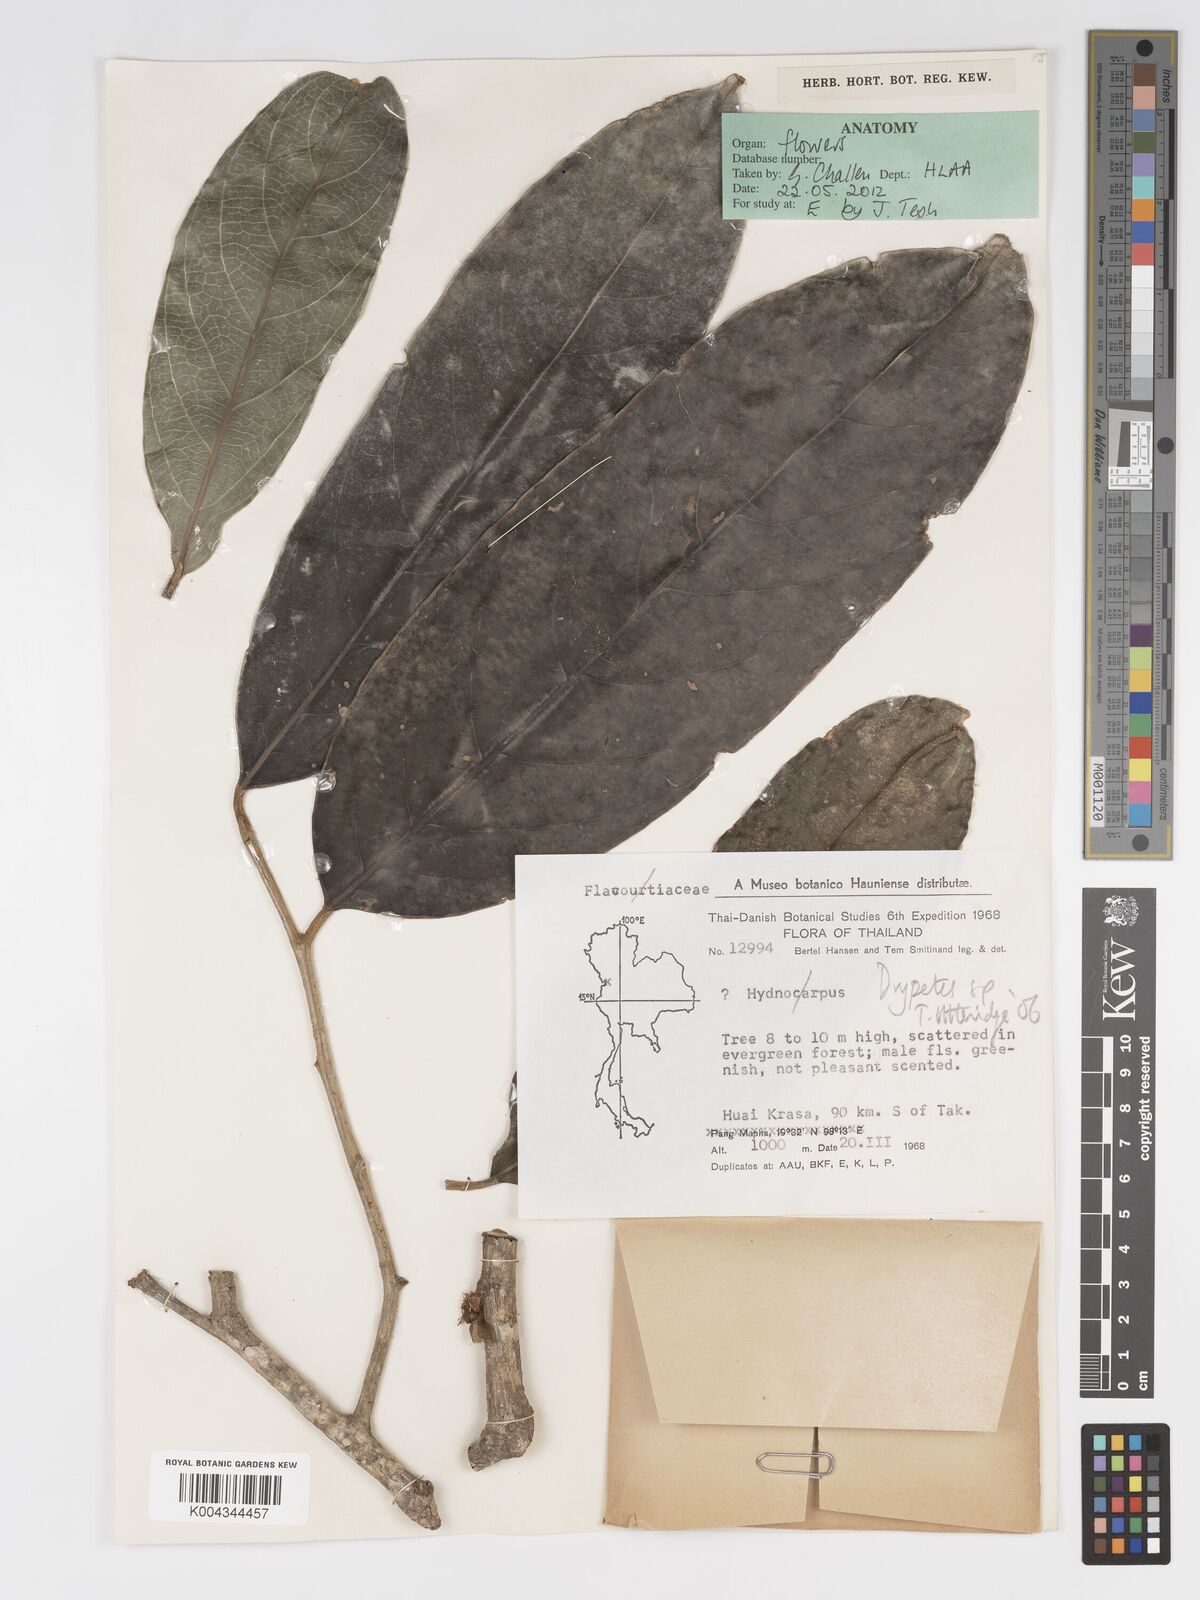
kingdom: Plantae
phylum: Tracheophyta
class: Magnoliopsida
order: Malpighiales
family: Putranjivaceae
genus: Drypetes
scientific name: Drypetes
